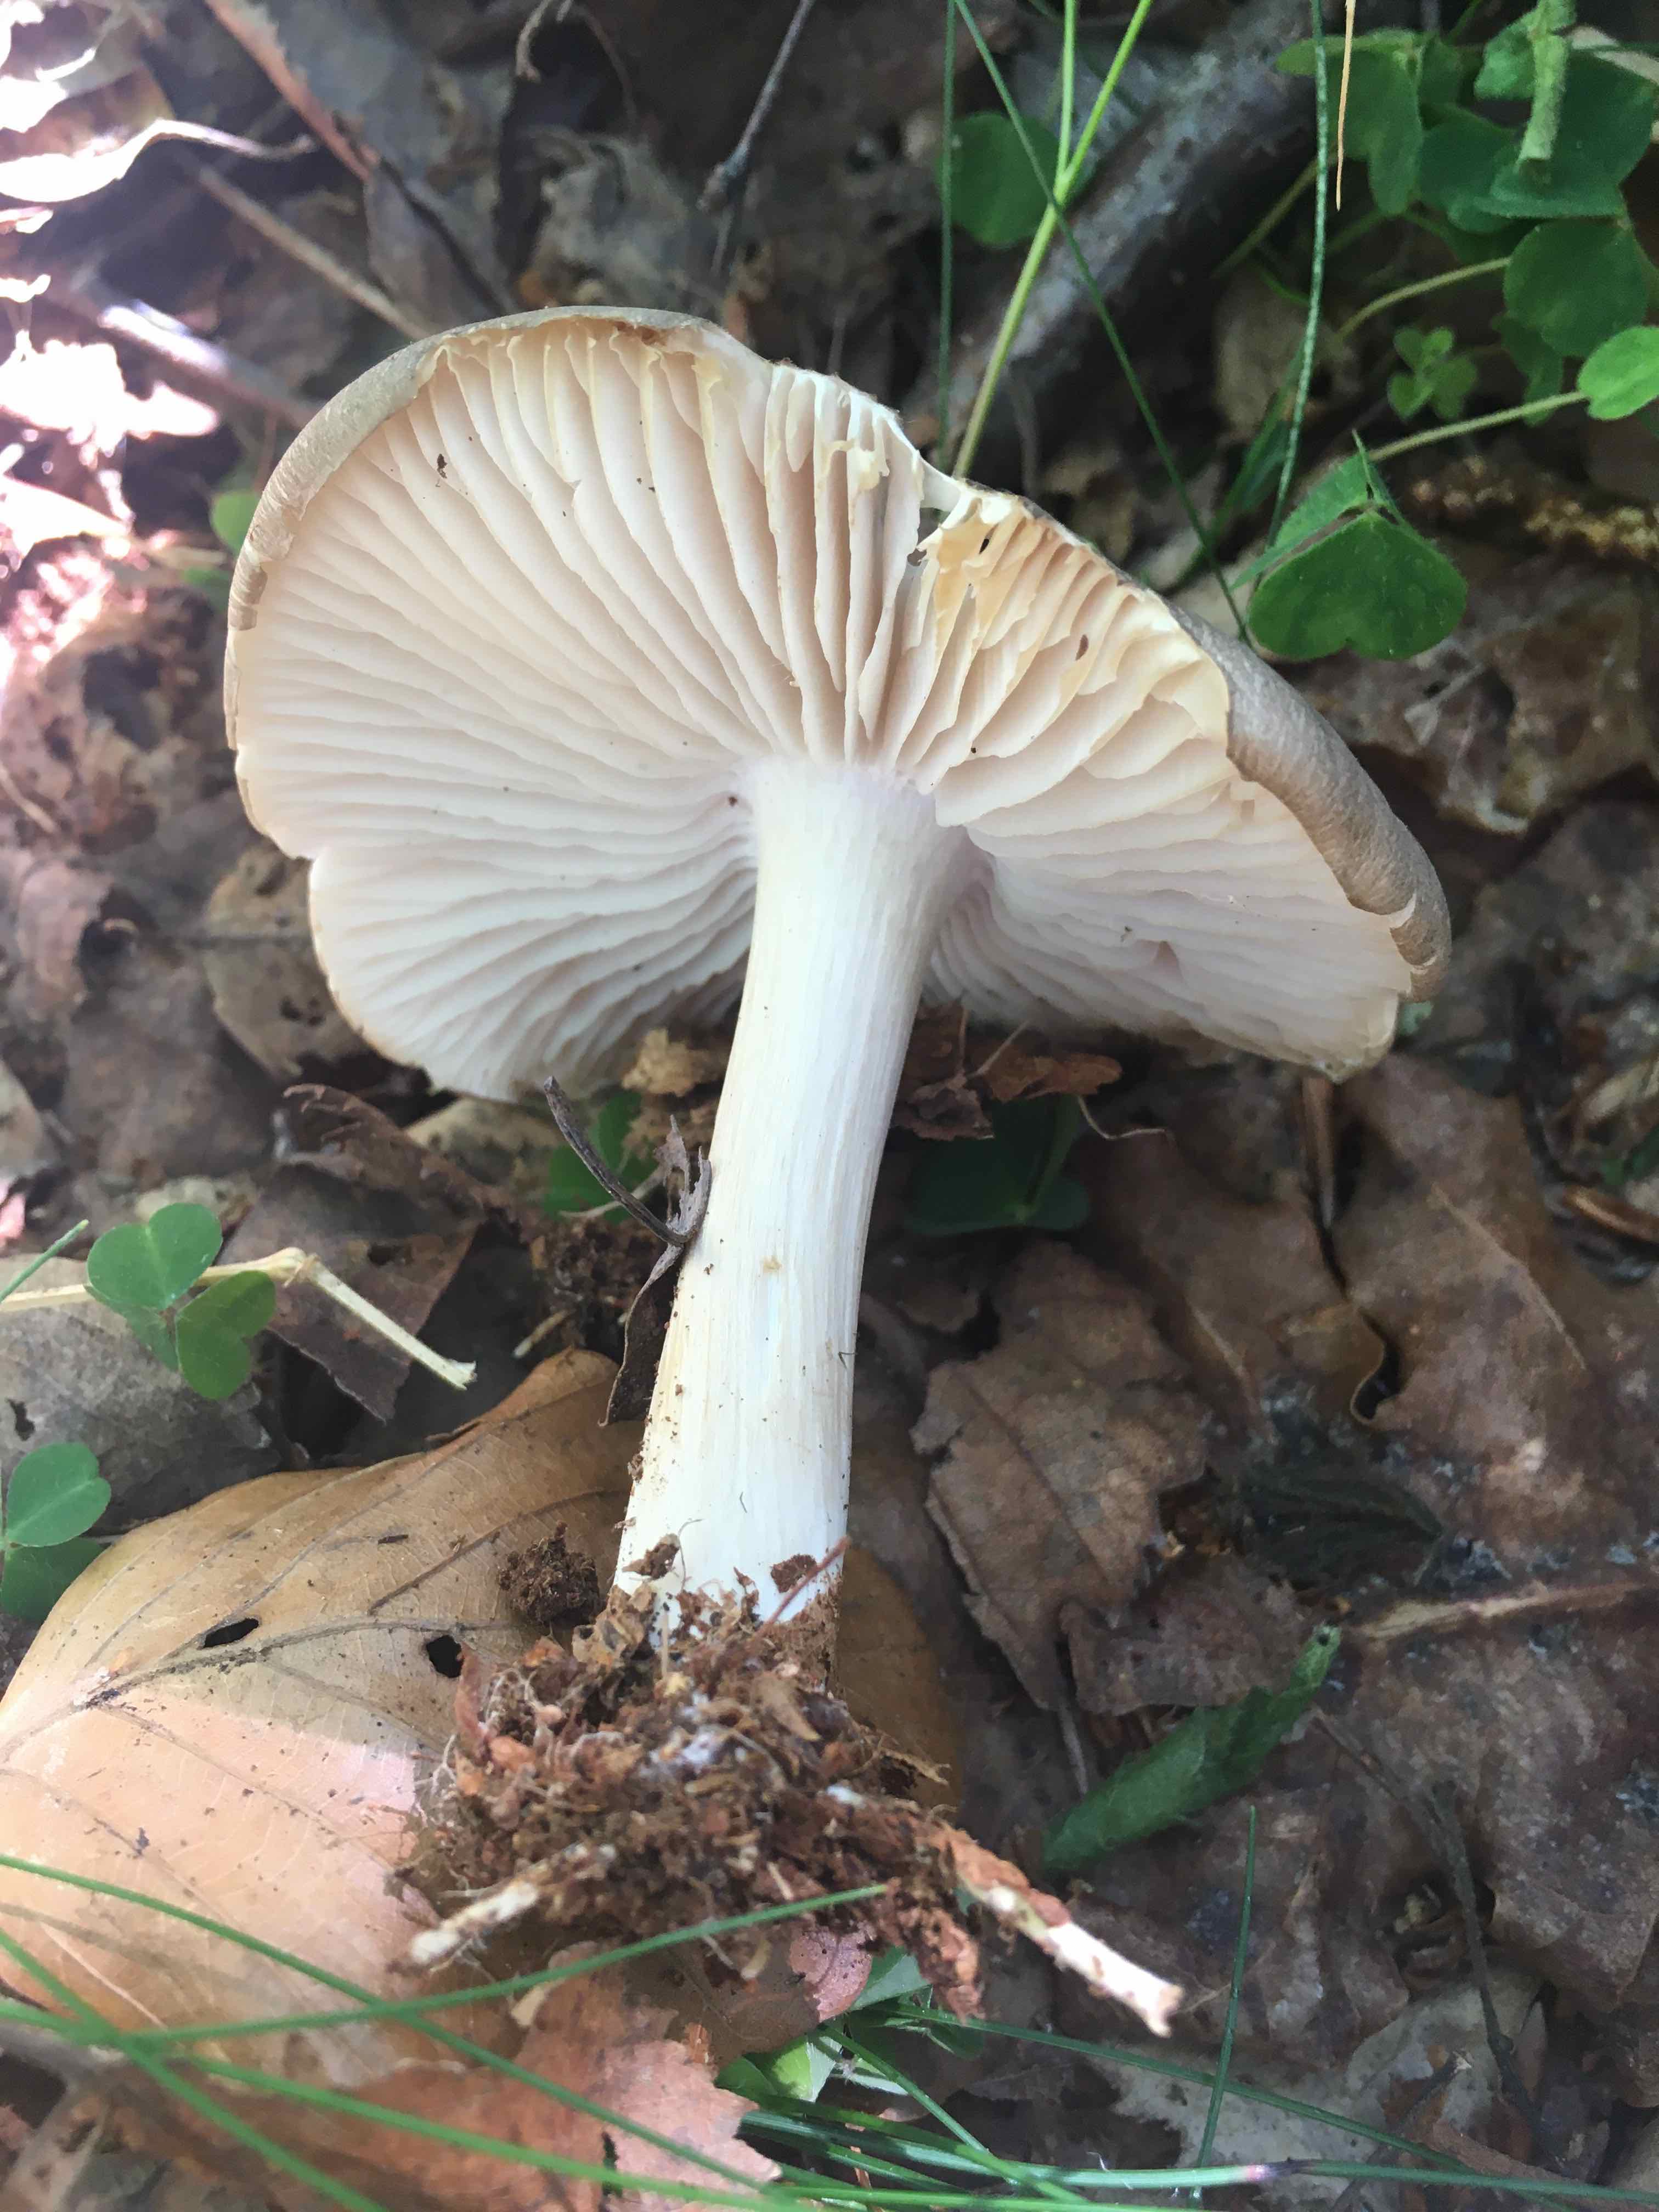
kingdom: Fungi
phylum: Basidiomycota
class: Agaricomycetes
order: Agaricales
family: Tricholomataceae
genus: Megacollybia
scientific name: Megacollybia platyphylla
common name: bredbladet væbnerhat
